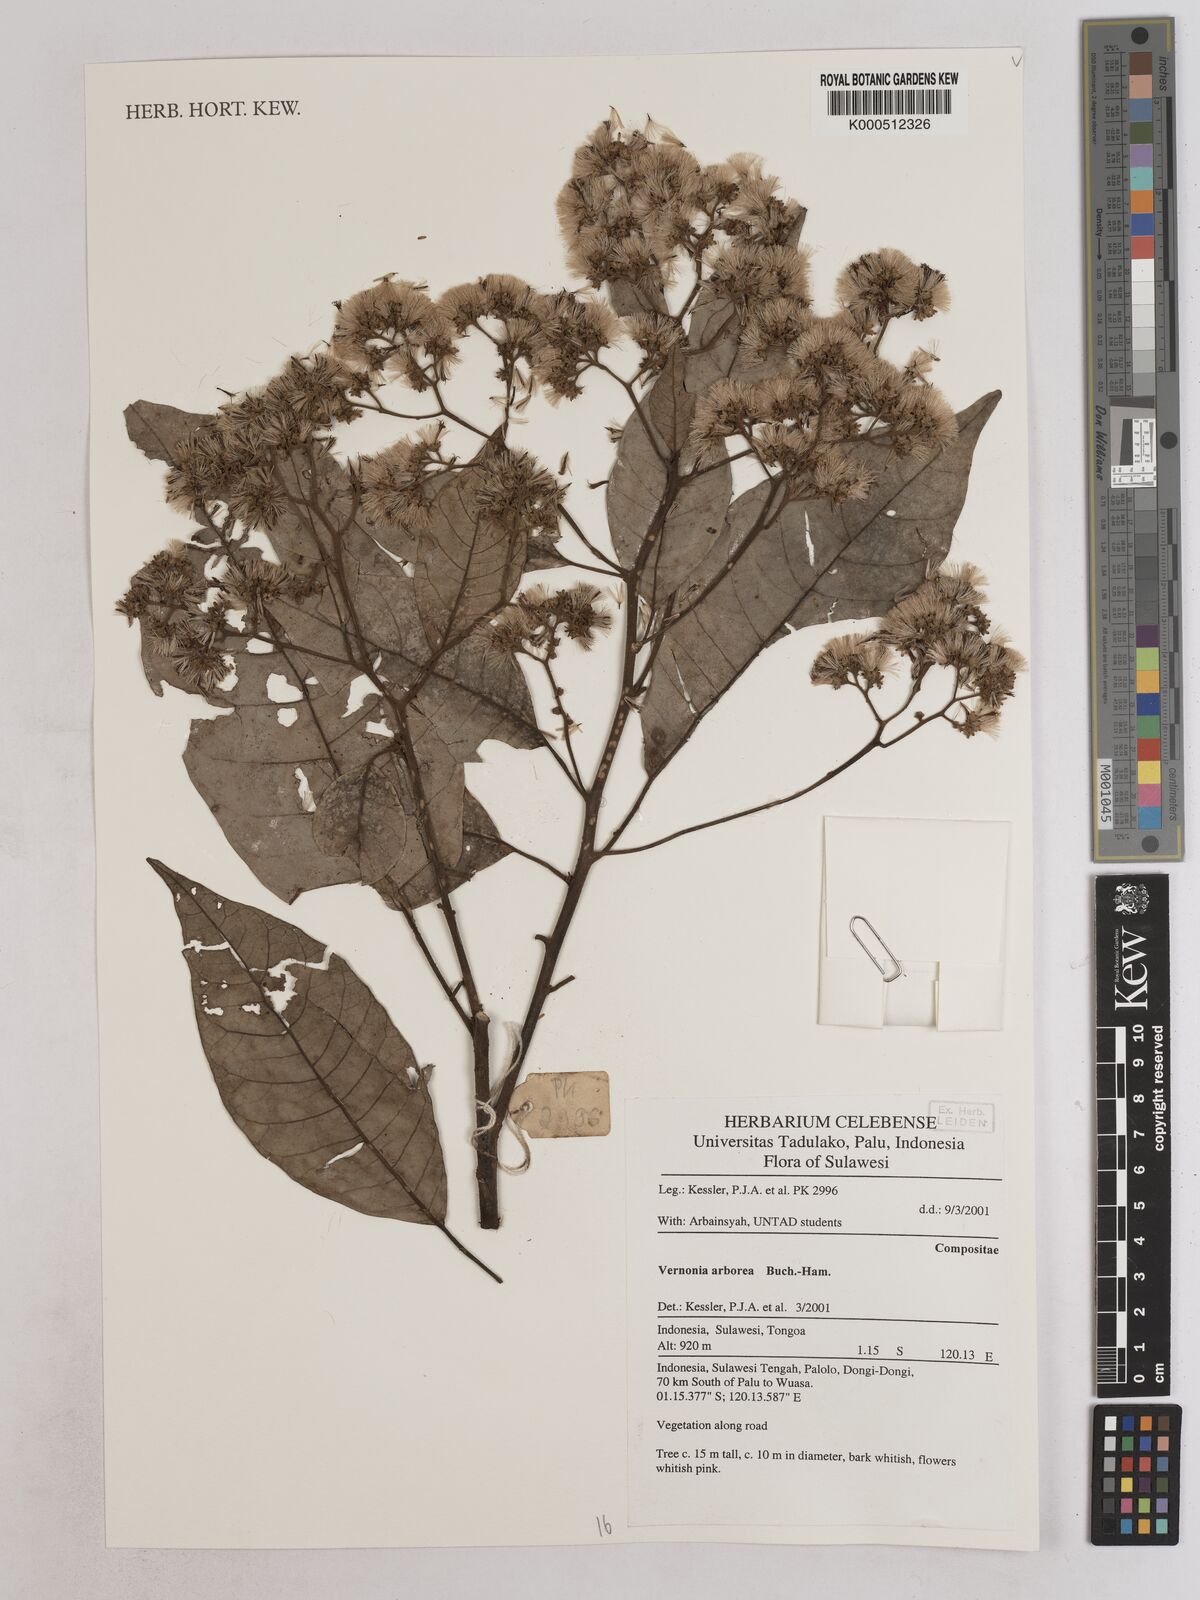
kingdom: Plantae
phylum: Tracheophyta
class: Magnoliopsida
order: Asterales
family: Asteraceae
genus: Vernonia
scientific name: Vernonia
